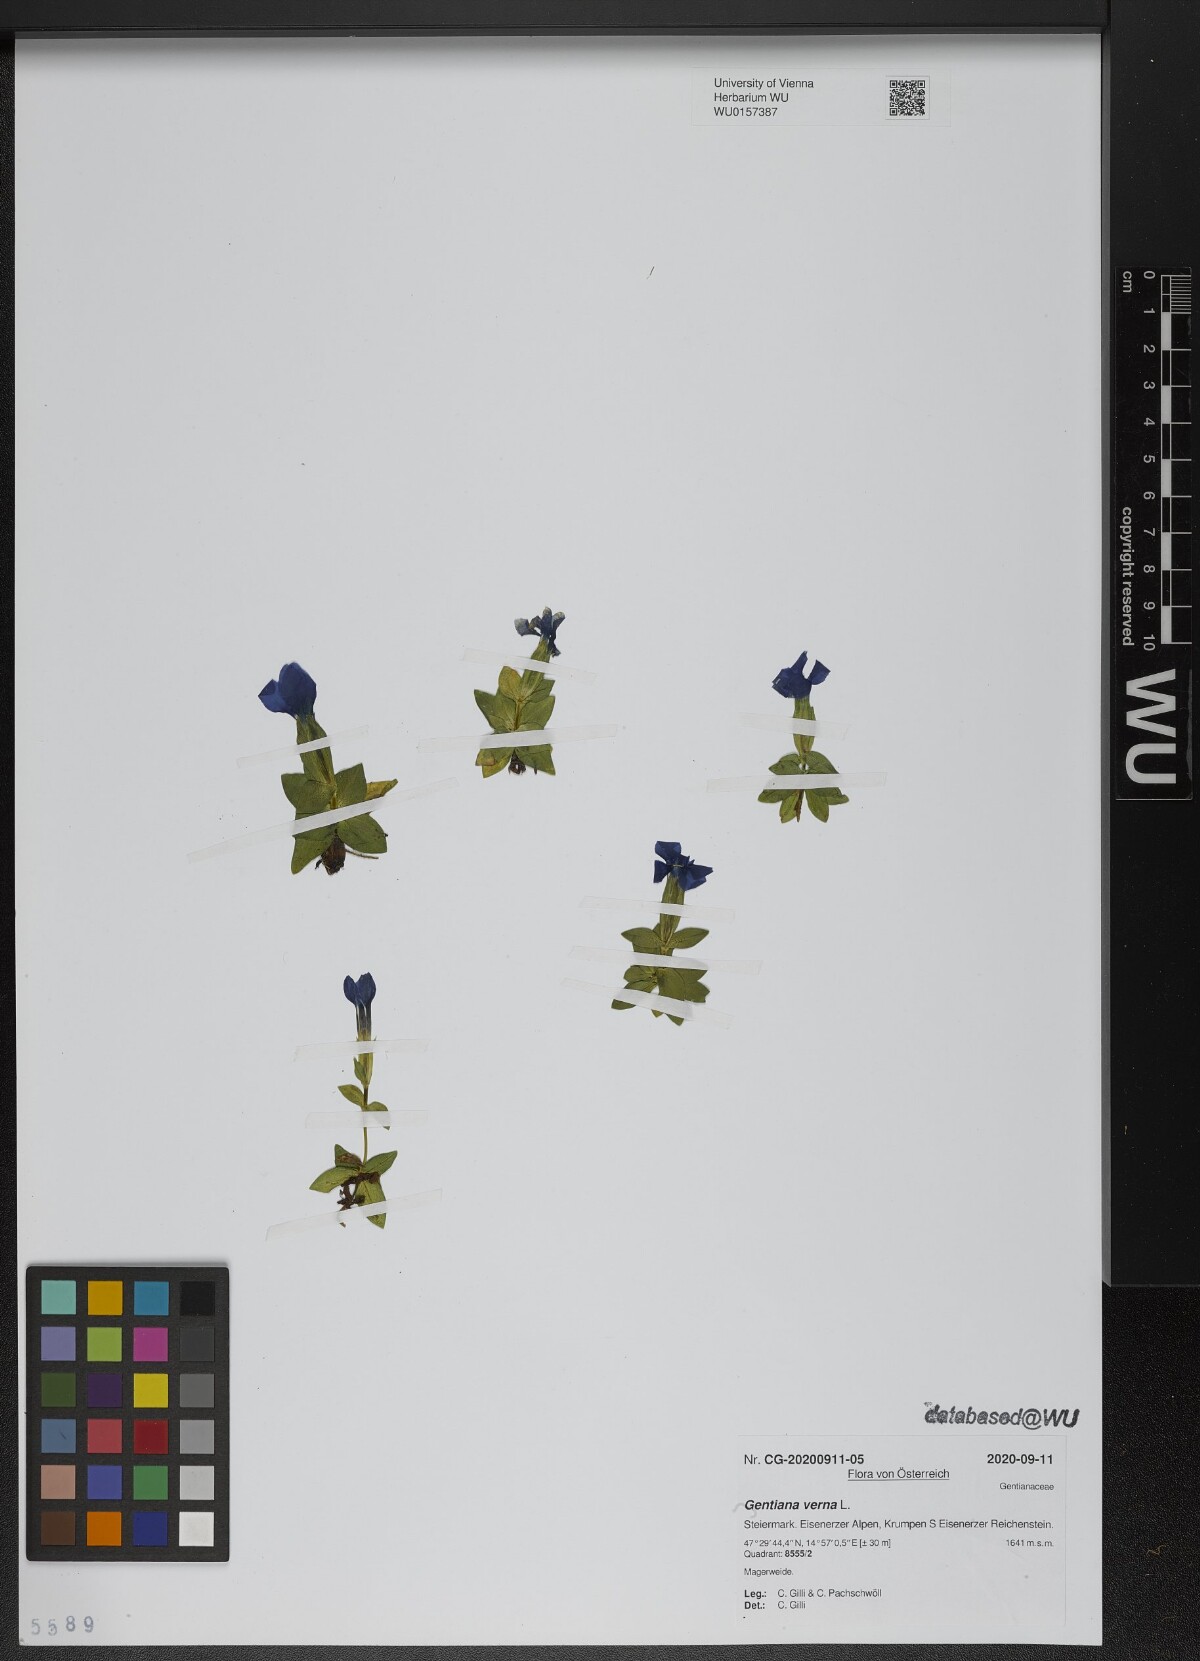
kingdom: Plantae
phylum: Tracheophyta
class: Magnoliopsida
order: Gentianales
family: Gentianaceae
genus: Gentiana
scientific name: Gentiana verna
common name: Spring gentian
